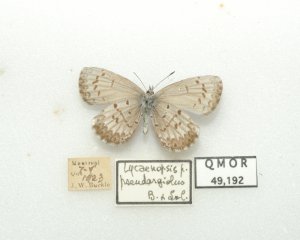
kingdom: Animalia
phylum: Arthropoda
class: Insecta
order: Lepidoptera
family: Lycaenidae
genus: Celastrina
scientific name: Celastrina lucia
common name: Northern Spring Azure
